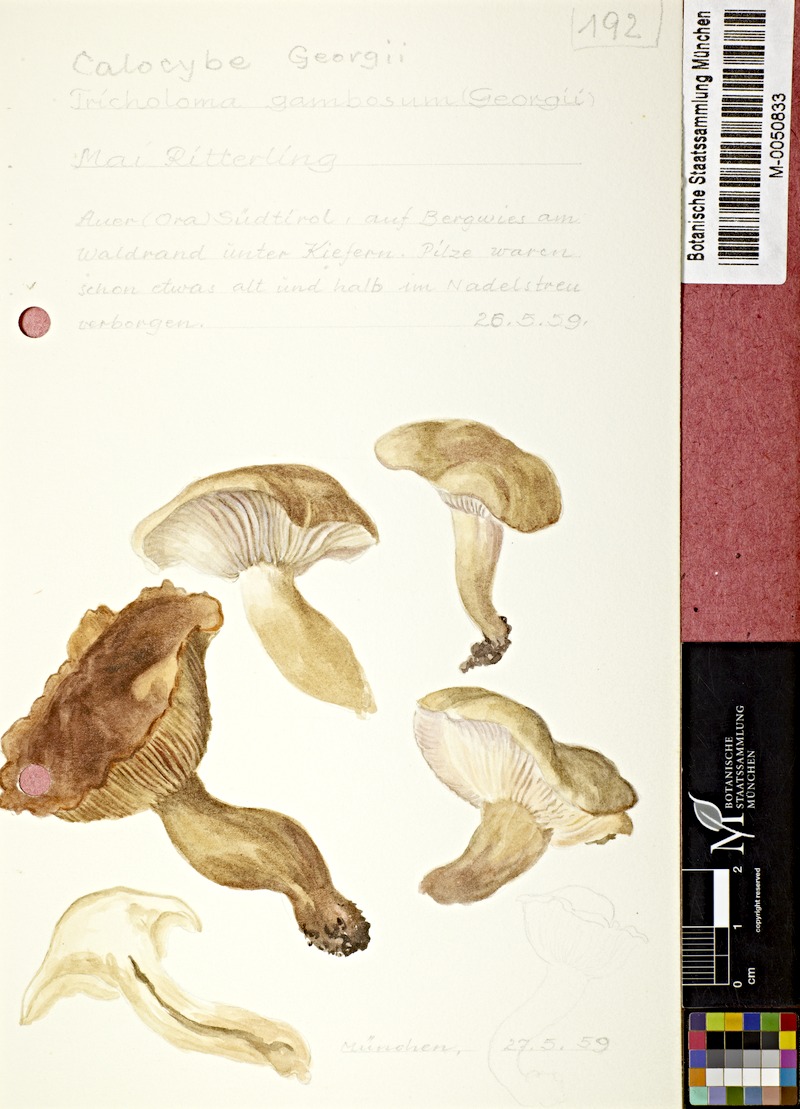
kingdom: Fungi
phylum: Basidiomycota
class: Agaricomycetes
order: Agaricales
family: Lyophyllaceae
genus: Calocybe
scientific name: Calocybe gambosa
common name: St. george's mushroom
